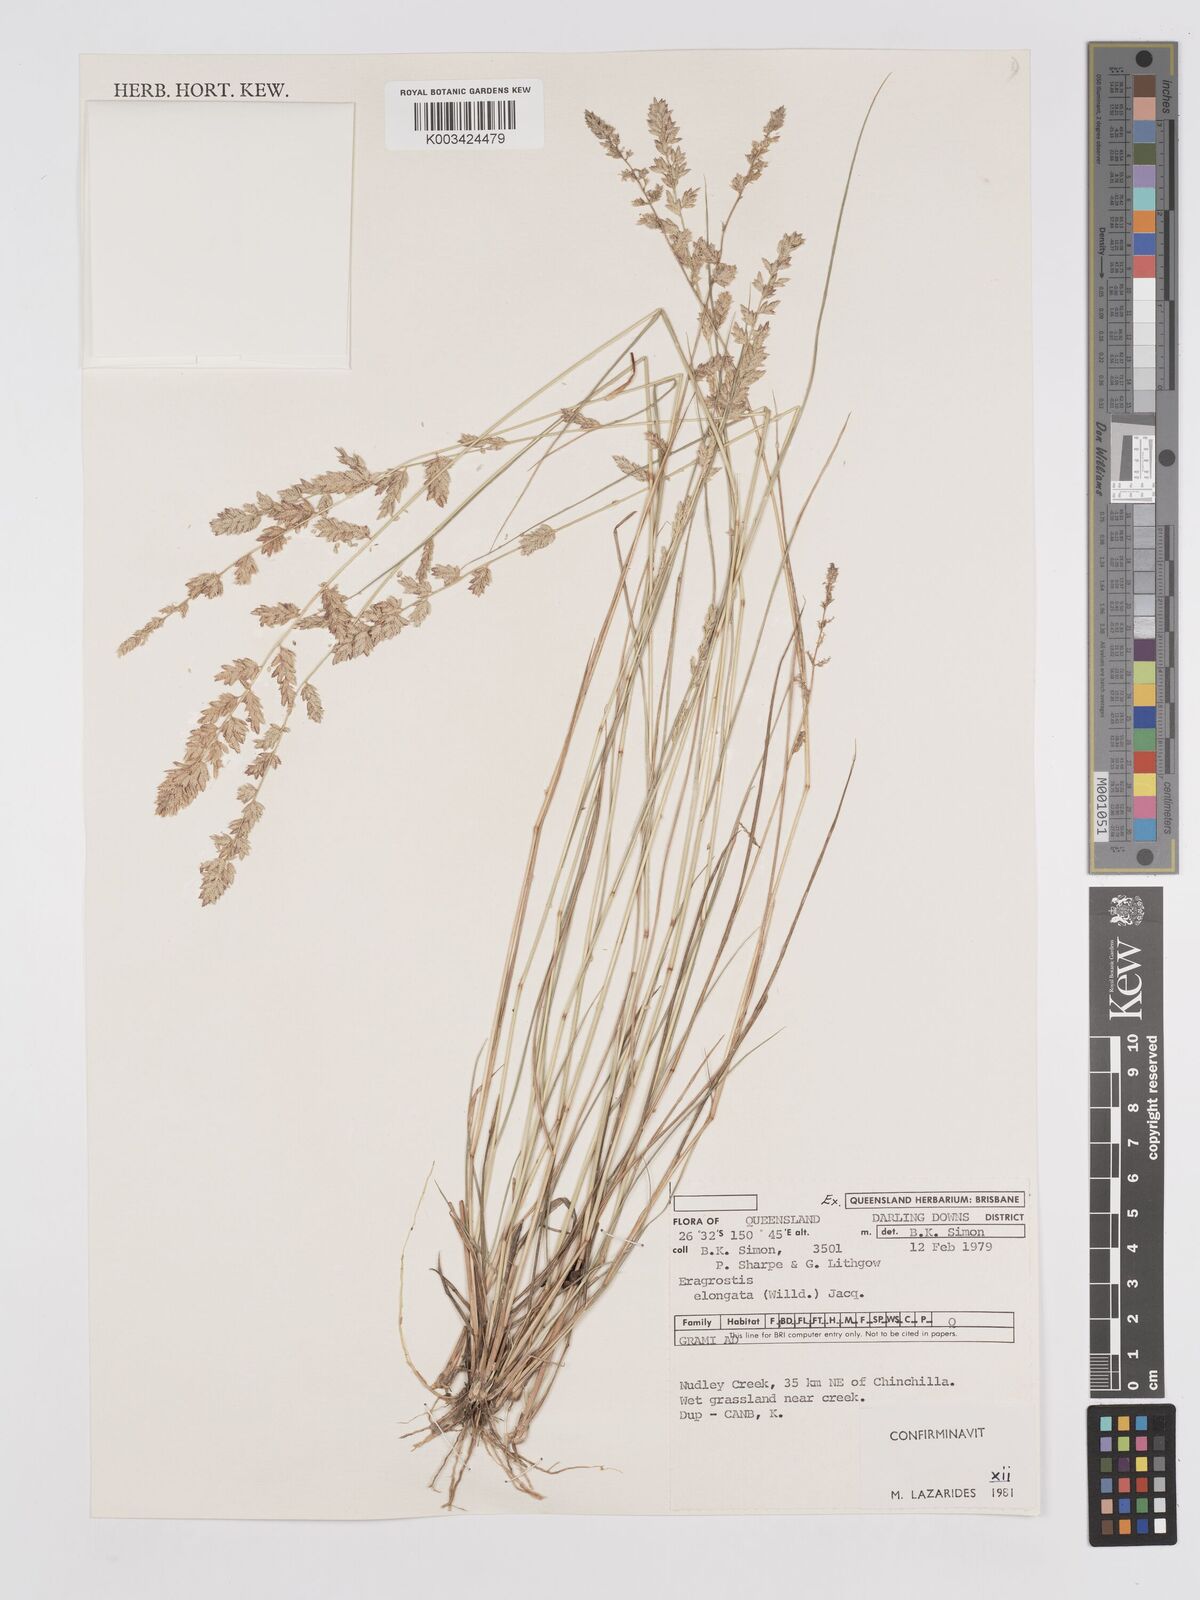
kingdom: Plantae
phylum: Tracheophyta
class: Liliopsida
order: Poales
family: Poaceae
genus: Eragrostis
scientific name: Eragrostis elongata
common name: Long lovegrass
